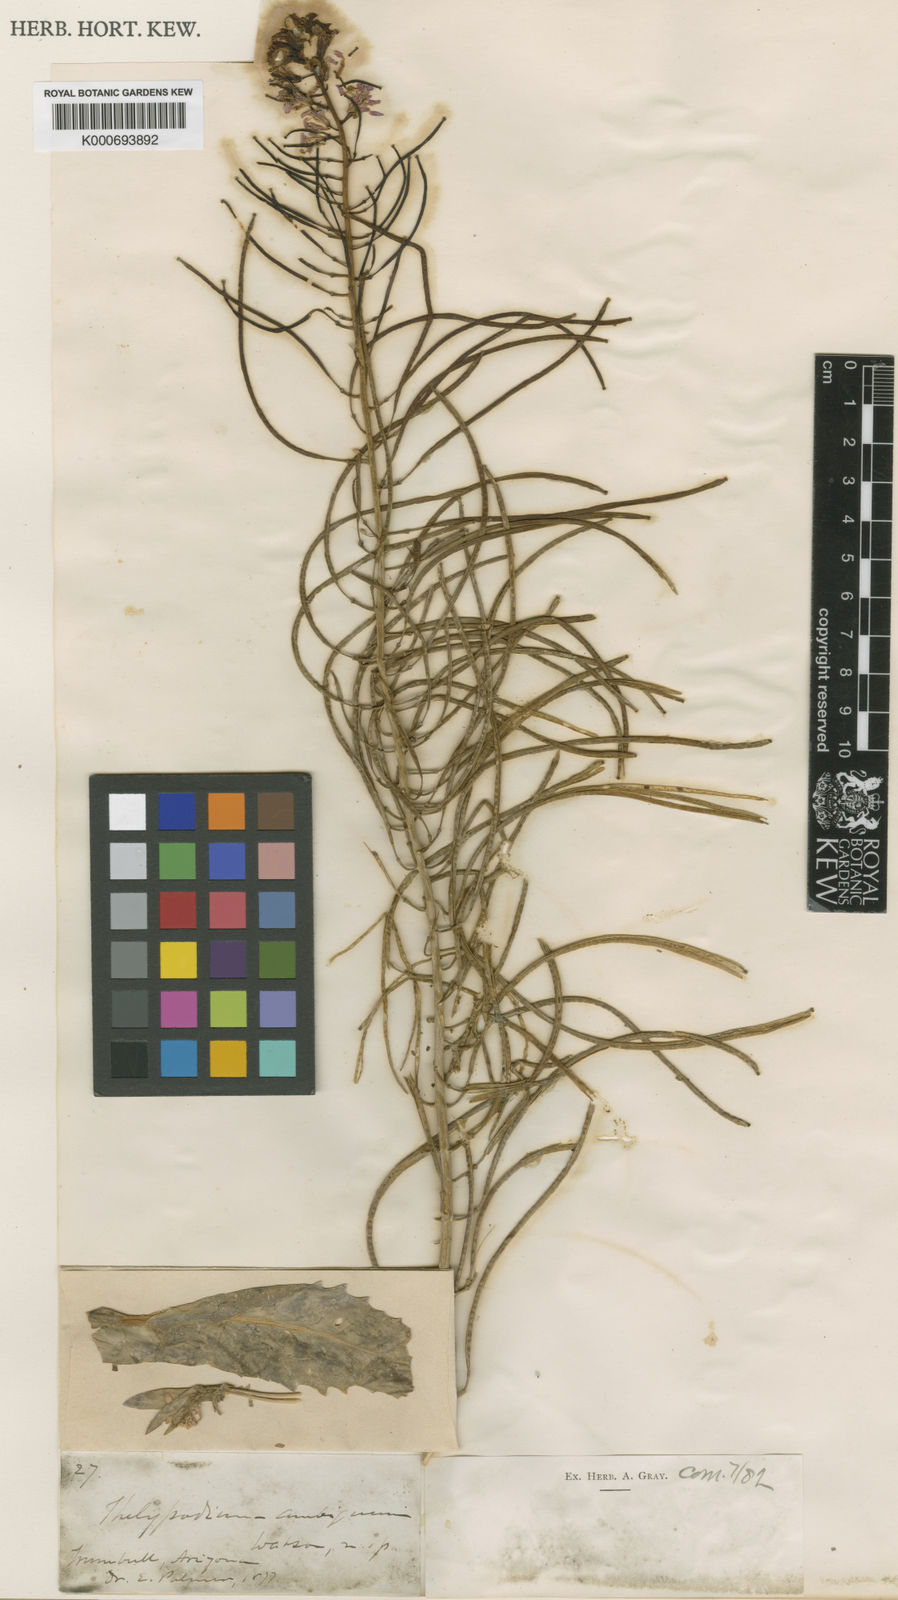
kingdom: Plantae
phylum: Tracheophyta
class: Magnoliopsida
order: Brassicales
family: Brassicaceae
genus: Thelypodiopsis
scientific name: Thelypodiopsis ambigua
